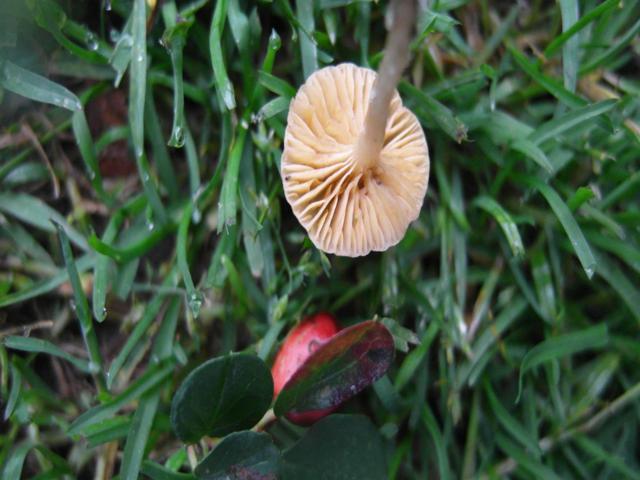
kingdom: Fungi
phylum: Basidiomycota
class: Agaricomycetes
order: Agaricales
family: Tubariaceae
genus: Tubaria
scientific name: Tubaria dispersa
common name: tjørne-fnughat
